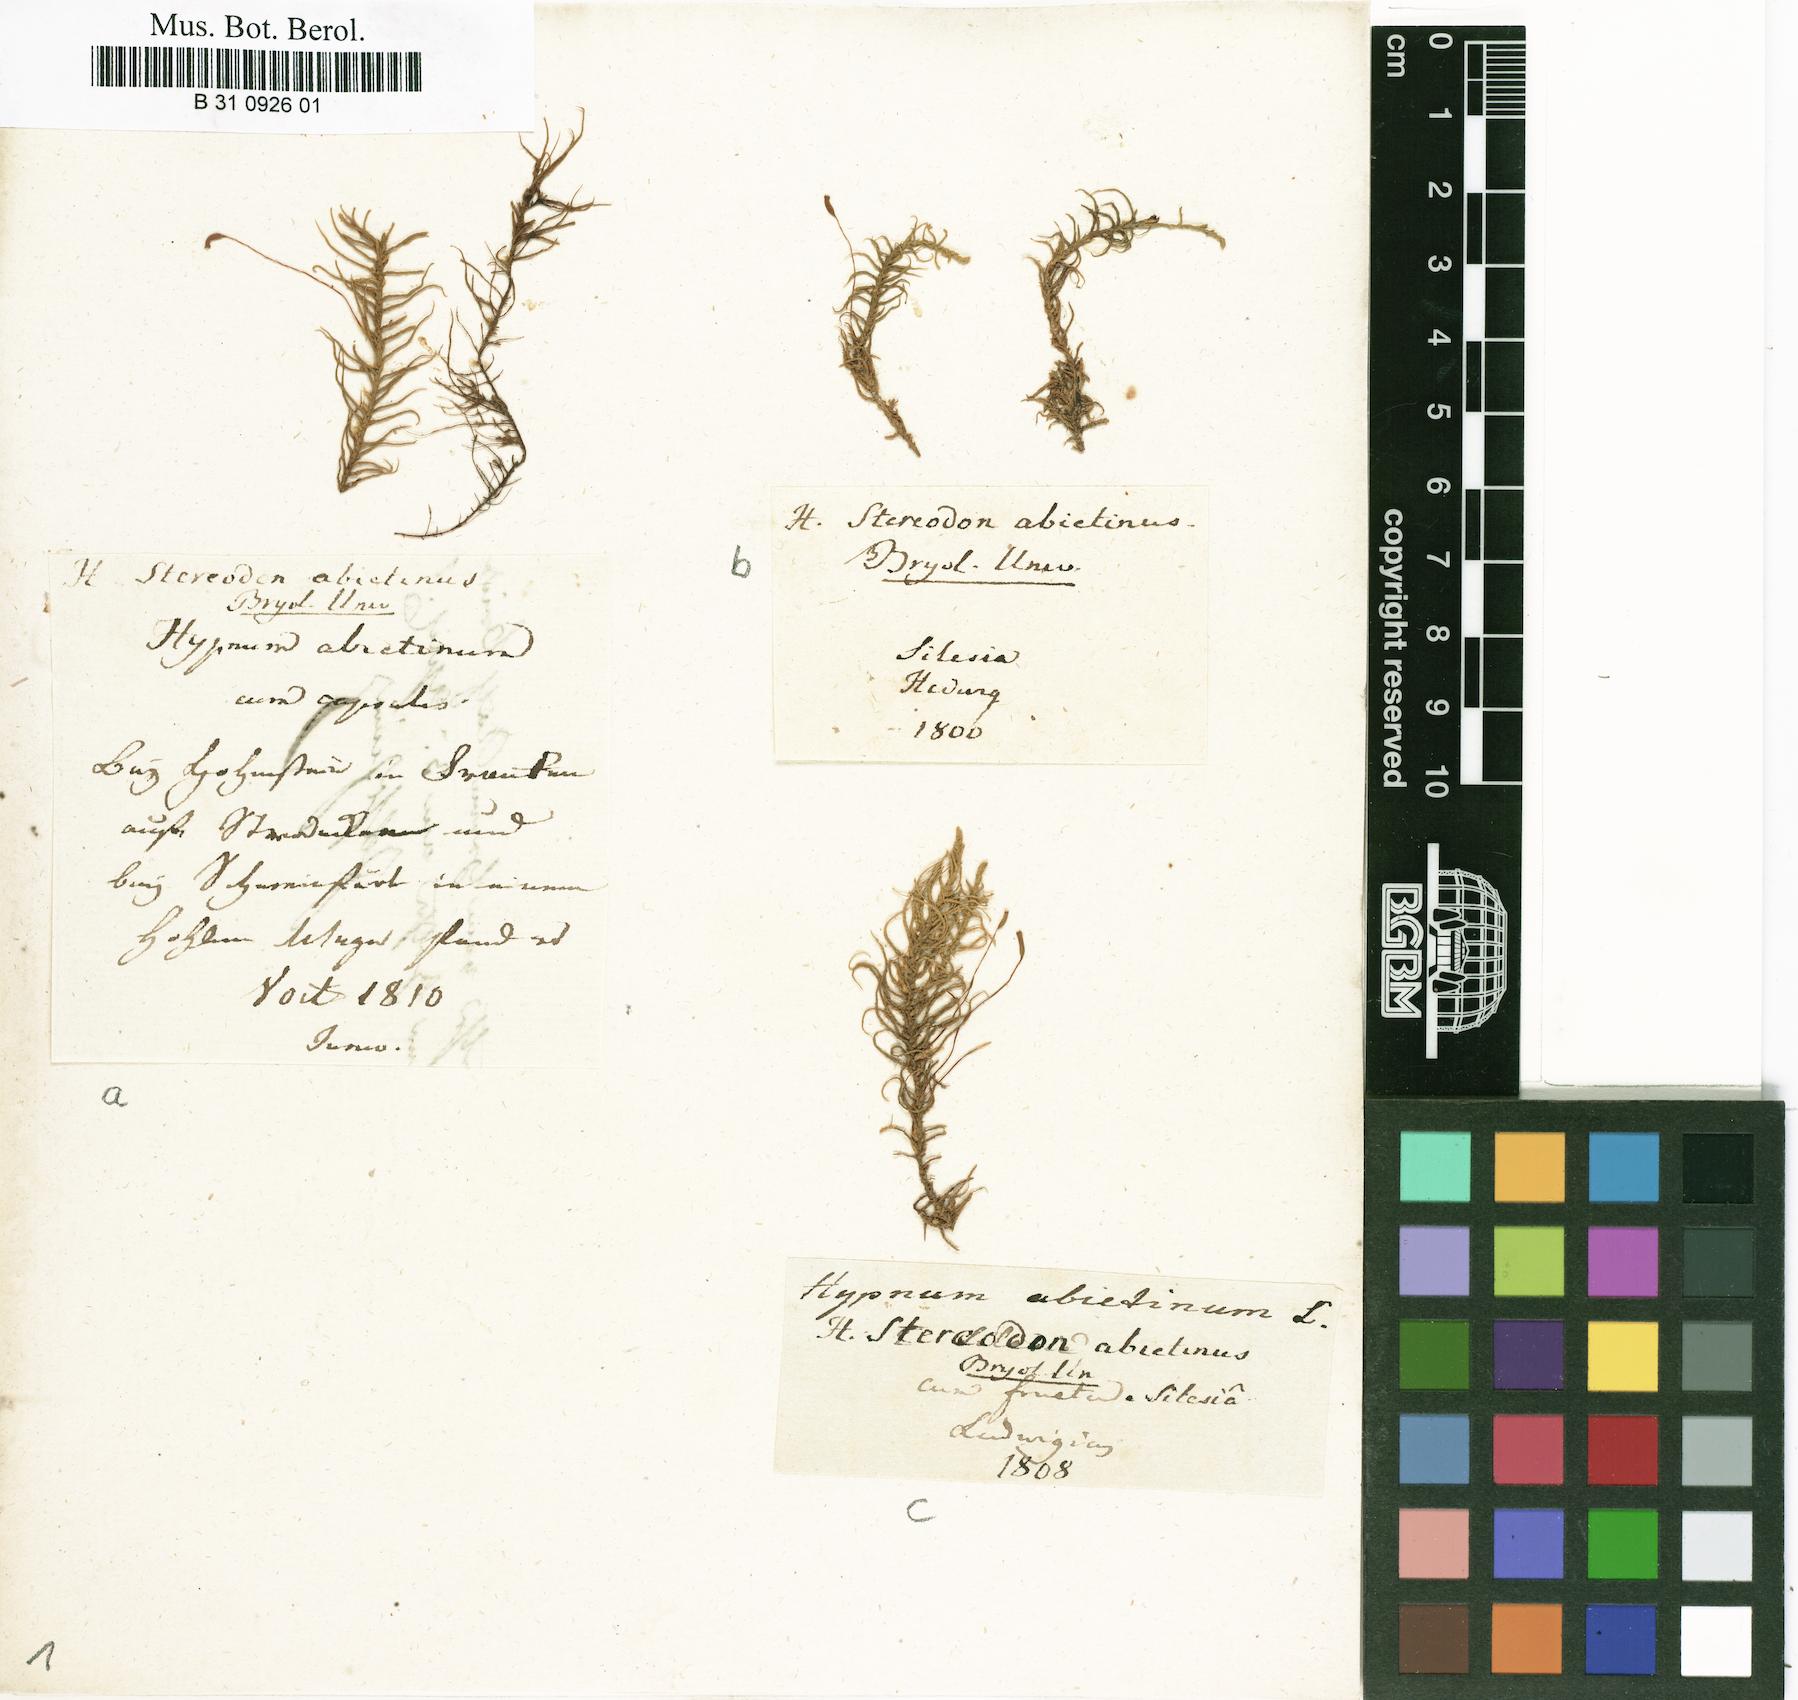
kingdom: Plantae
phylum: Bryophyta
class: Bryopsida
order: Hypnales
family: Thuidiaceae
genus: Abietinella
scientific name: Abietinella abietina
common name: Wiry fern moss
